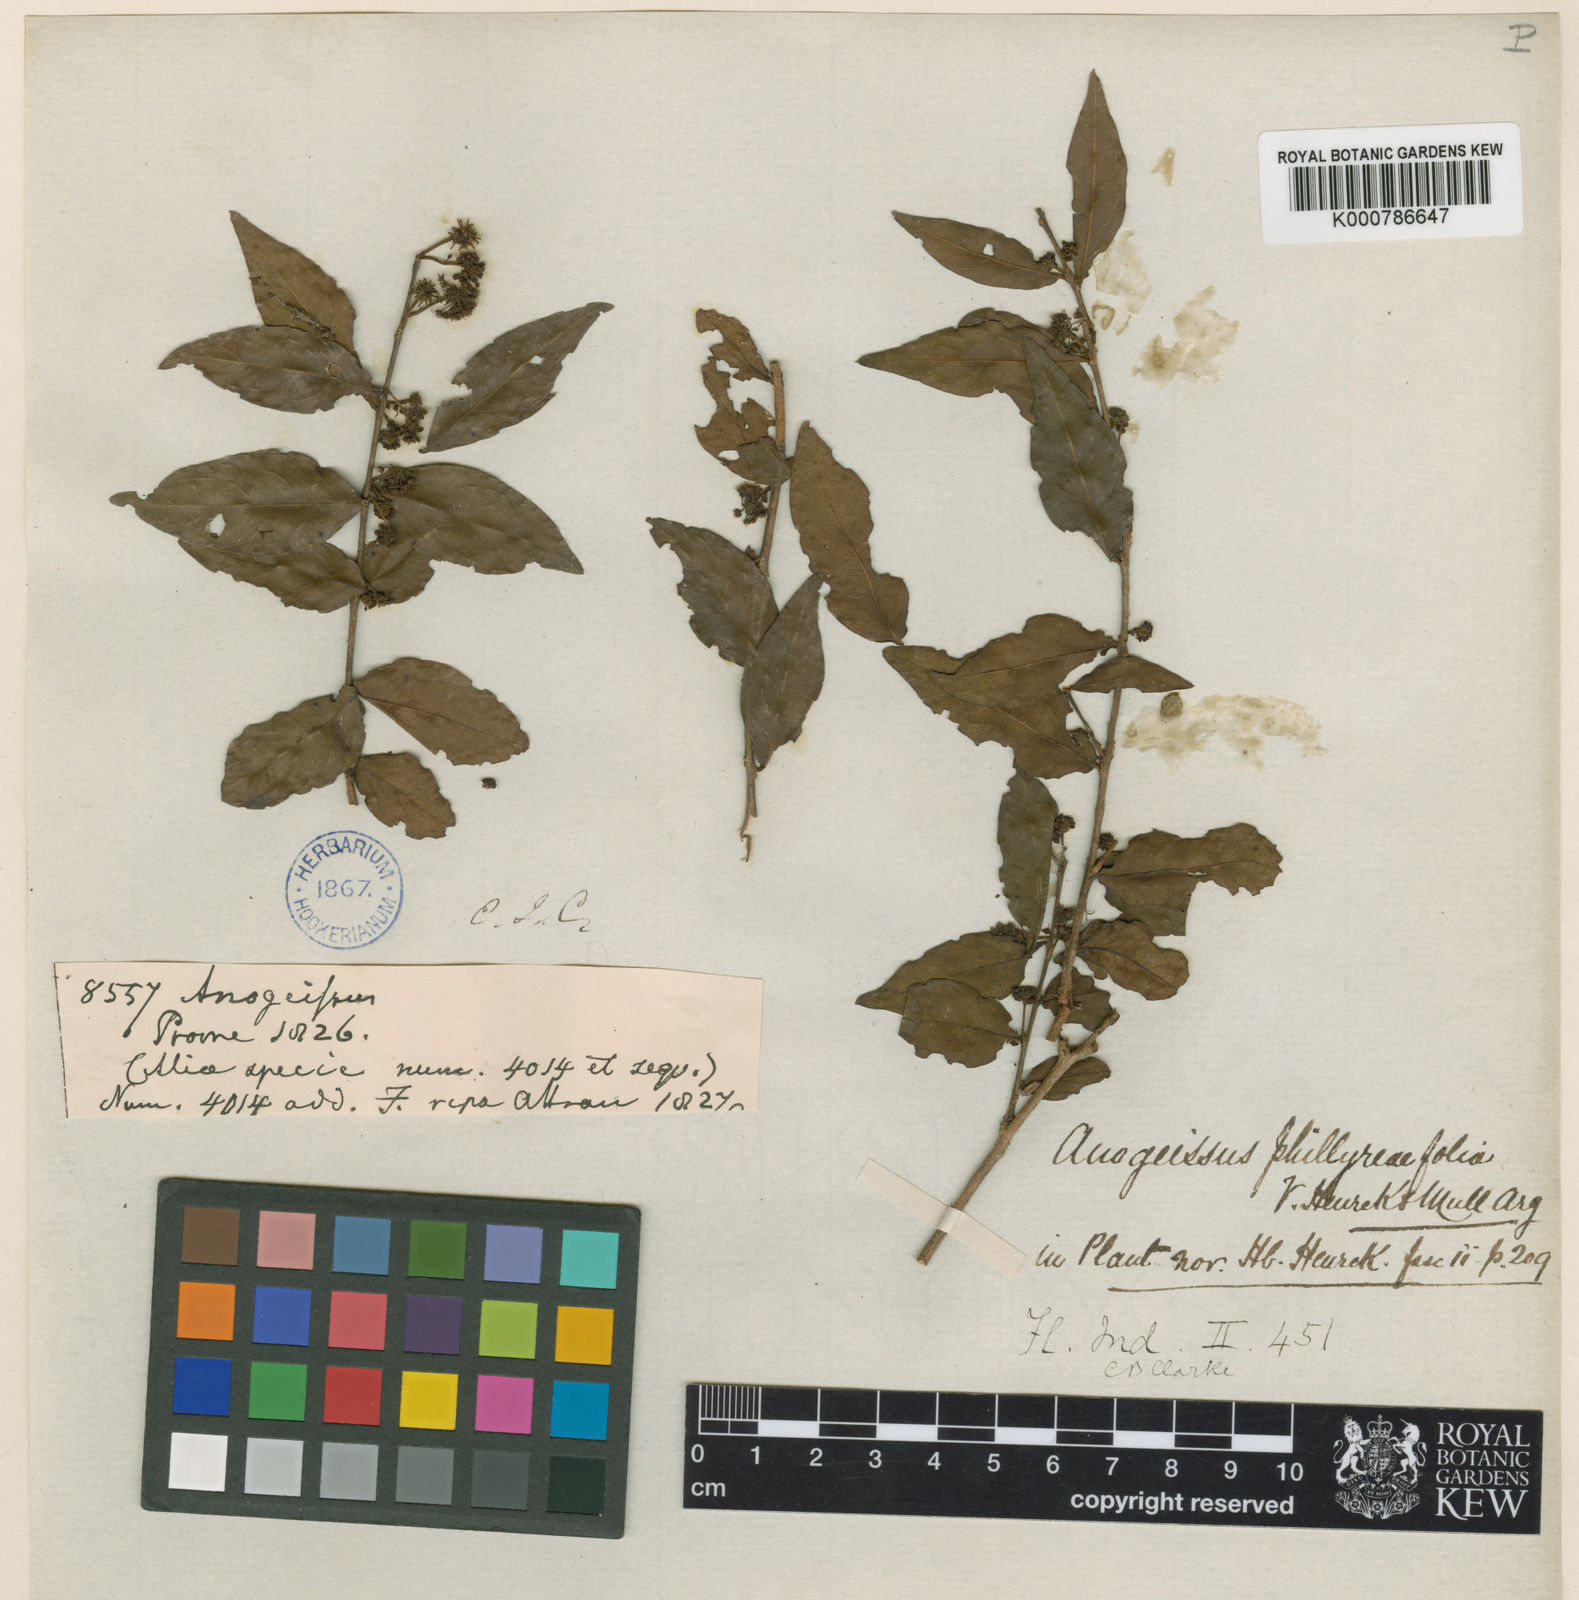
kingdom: Plantae
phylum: Tracheophyta
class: Magnoliopsida
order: Myrtales
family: Combretaceae
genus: Terminalia
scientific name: Terminalia phillyreifolia
